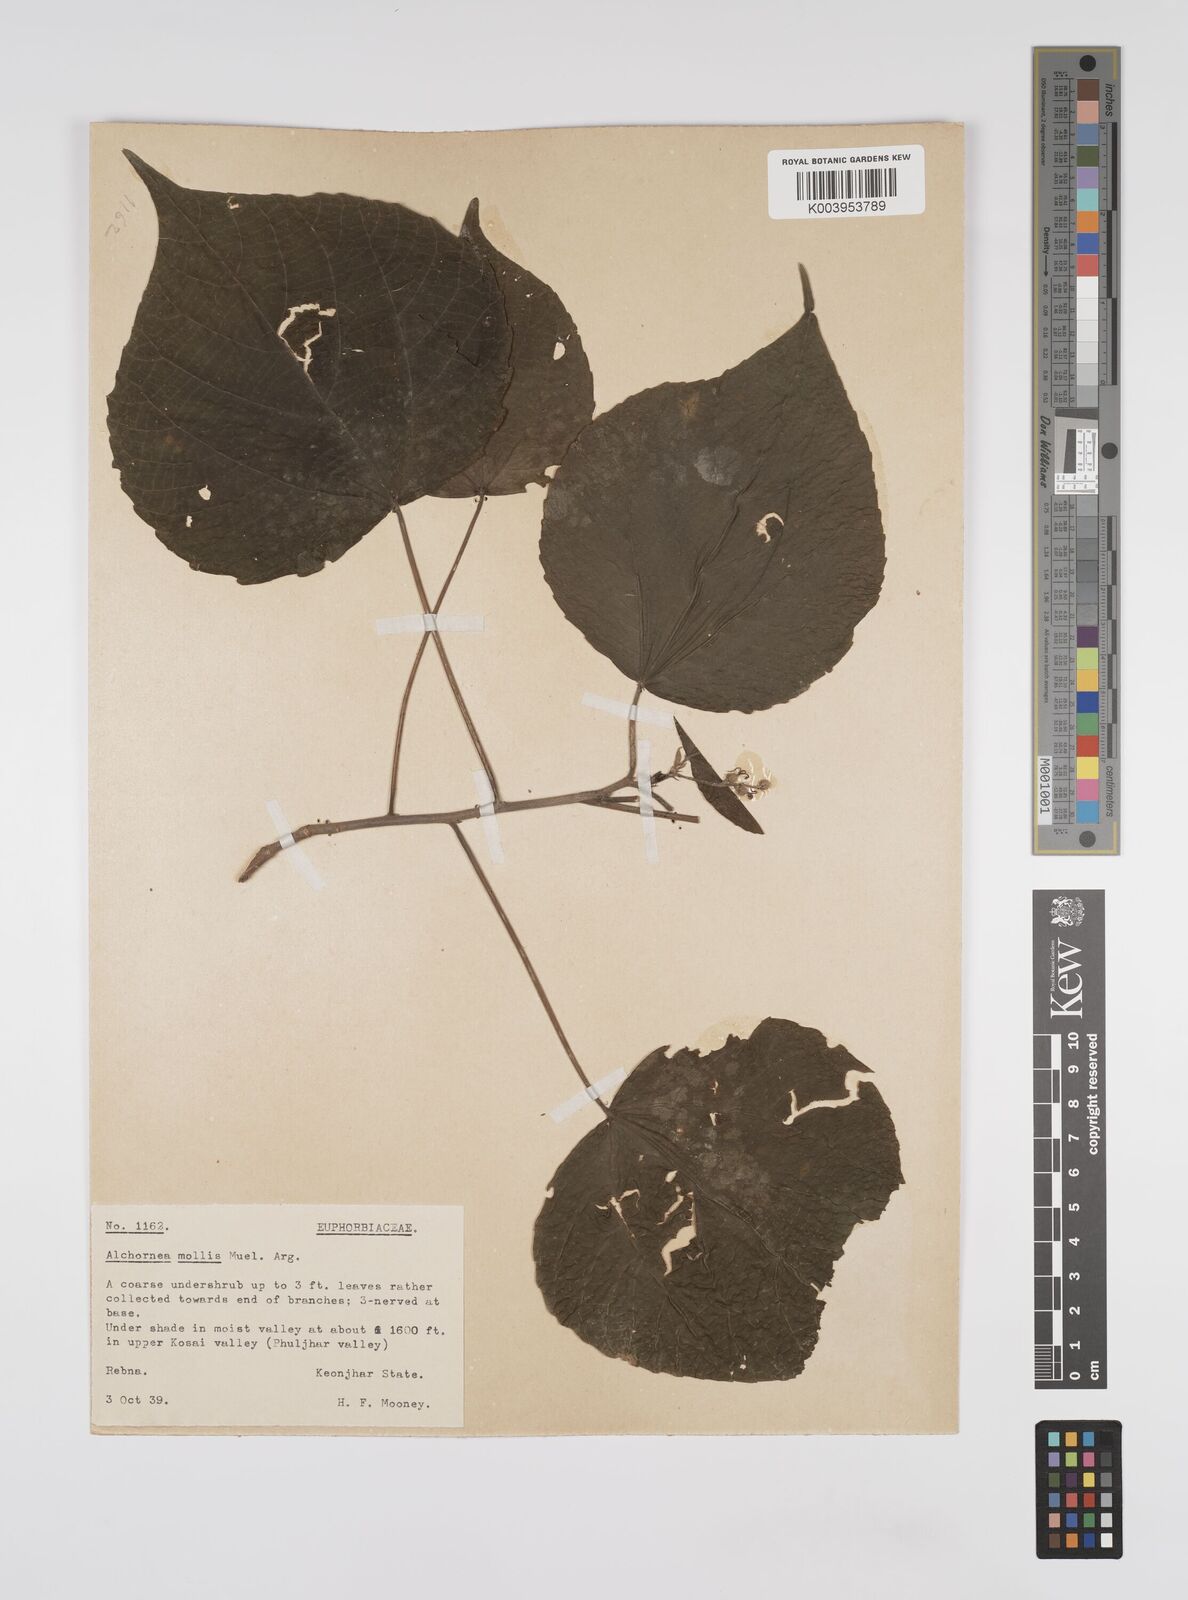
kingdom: Plantae
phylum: Tracheophyta
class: Magnoliopsida
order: Malpighiales
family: Euphorbiaceae
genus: Alchornea
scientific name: Alchornea mollis
